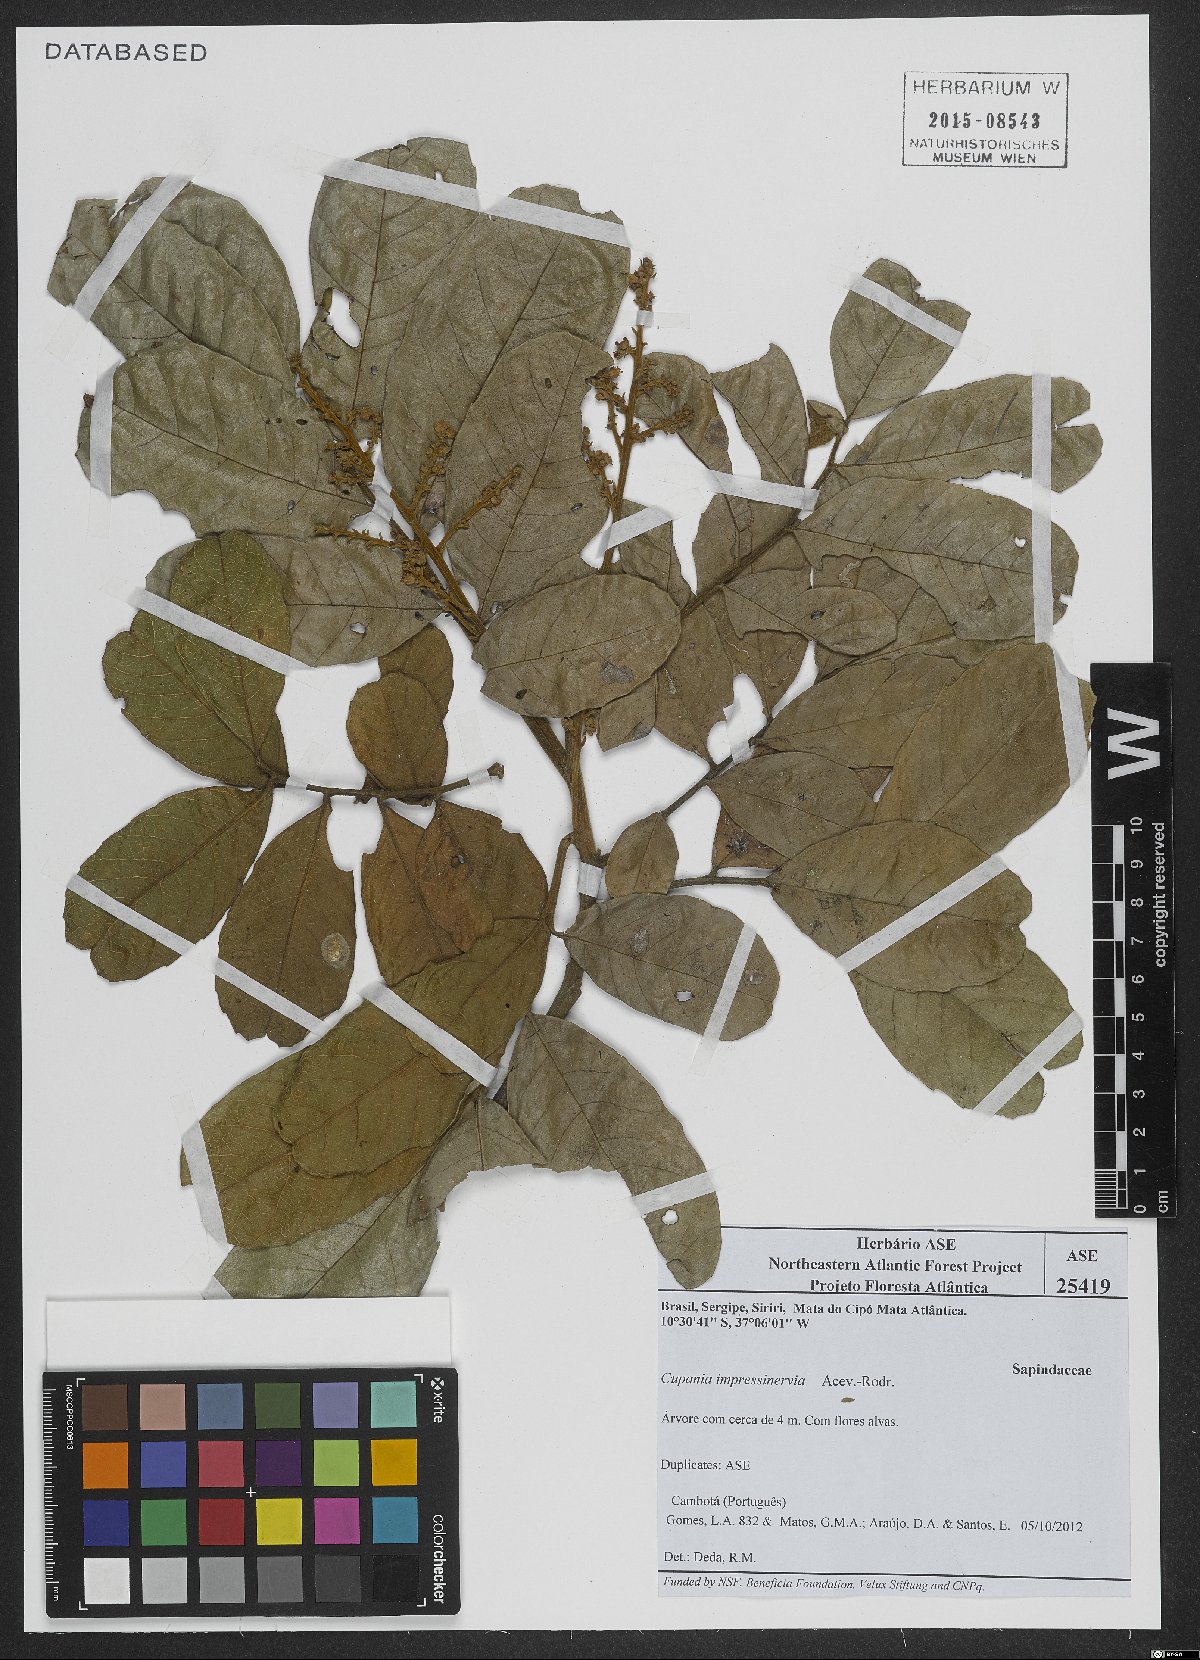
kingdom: Plantae
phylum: Tracheophyta
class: Magnoliopsida
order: Sapindales
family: Sapindaceae
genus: Cupania
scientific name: Cupania impressinervia
